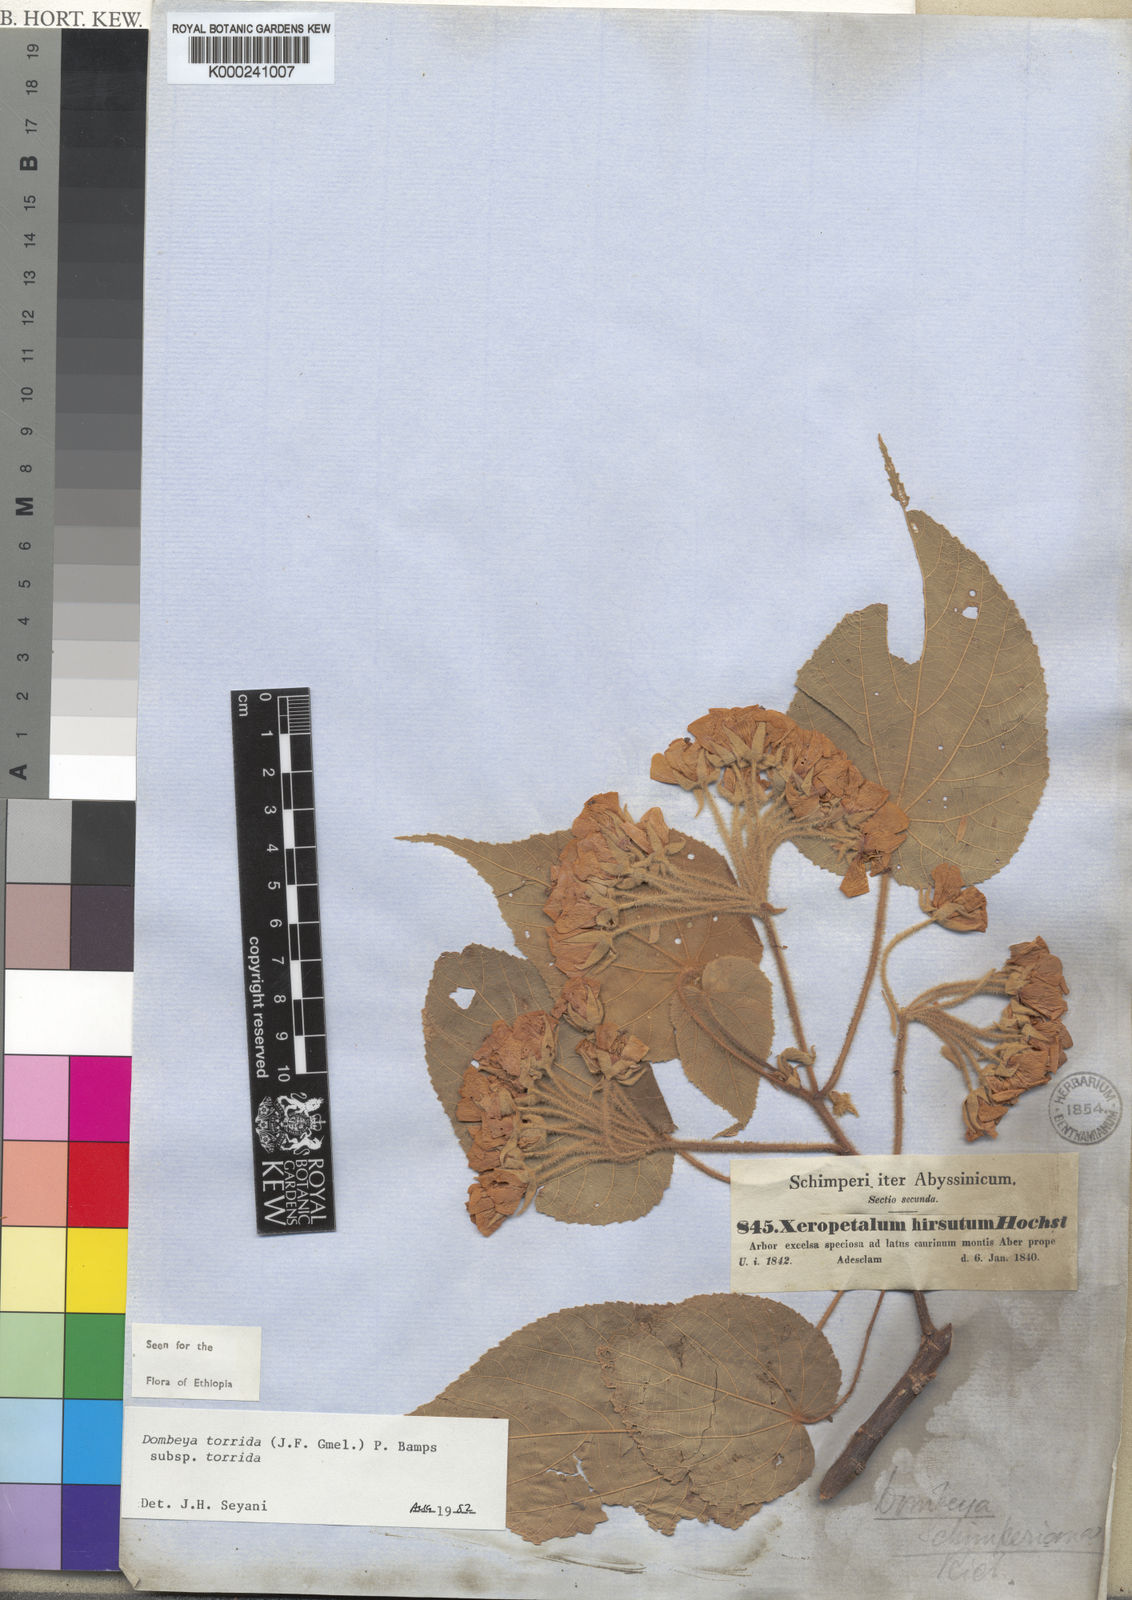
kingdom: Plantae
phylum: Tracheophyta
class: Magnoliopsida
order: Malvales
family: Malvaceae
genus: Dombeya
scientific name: Dombeya torrida
